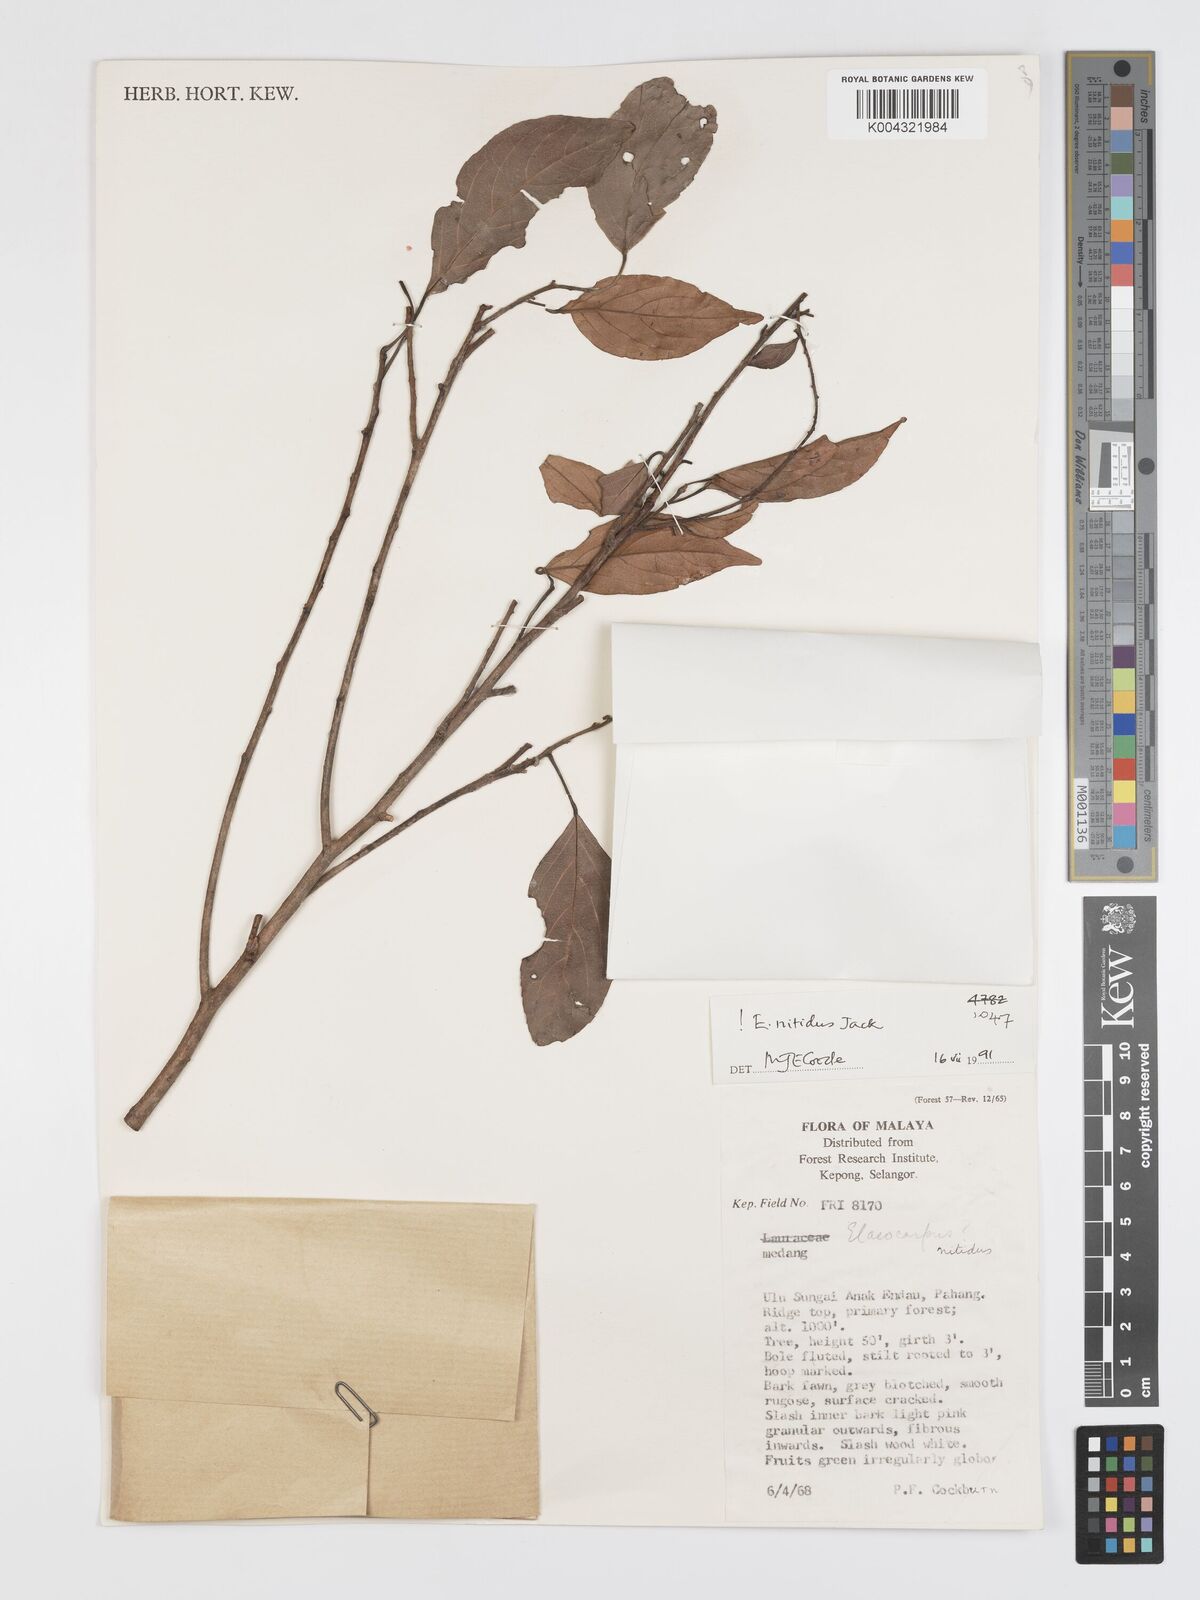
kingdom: Plantae
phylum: Tracheophyta
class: Magnoliopsida
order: Oxalidales
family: Elaeocarpaceae
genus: Elaeocarpus
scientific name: Elaeocarpus nitidus
